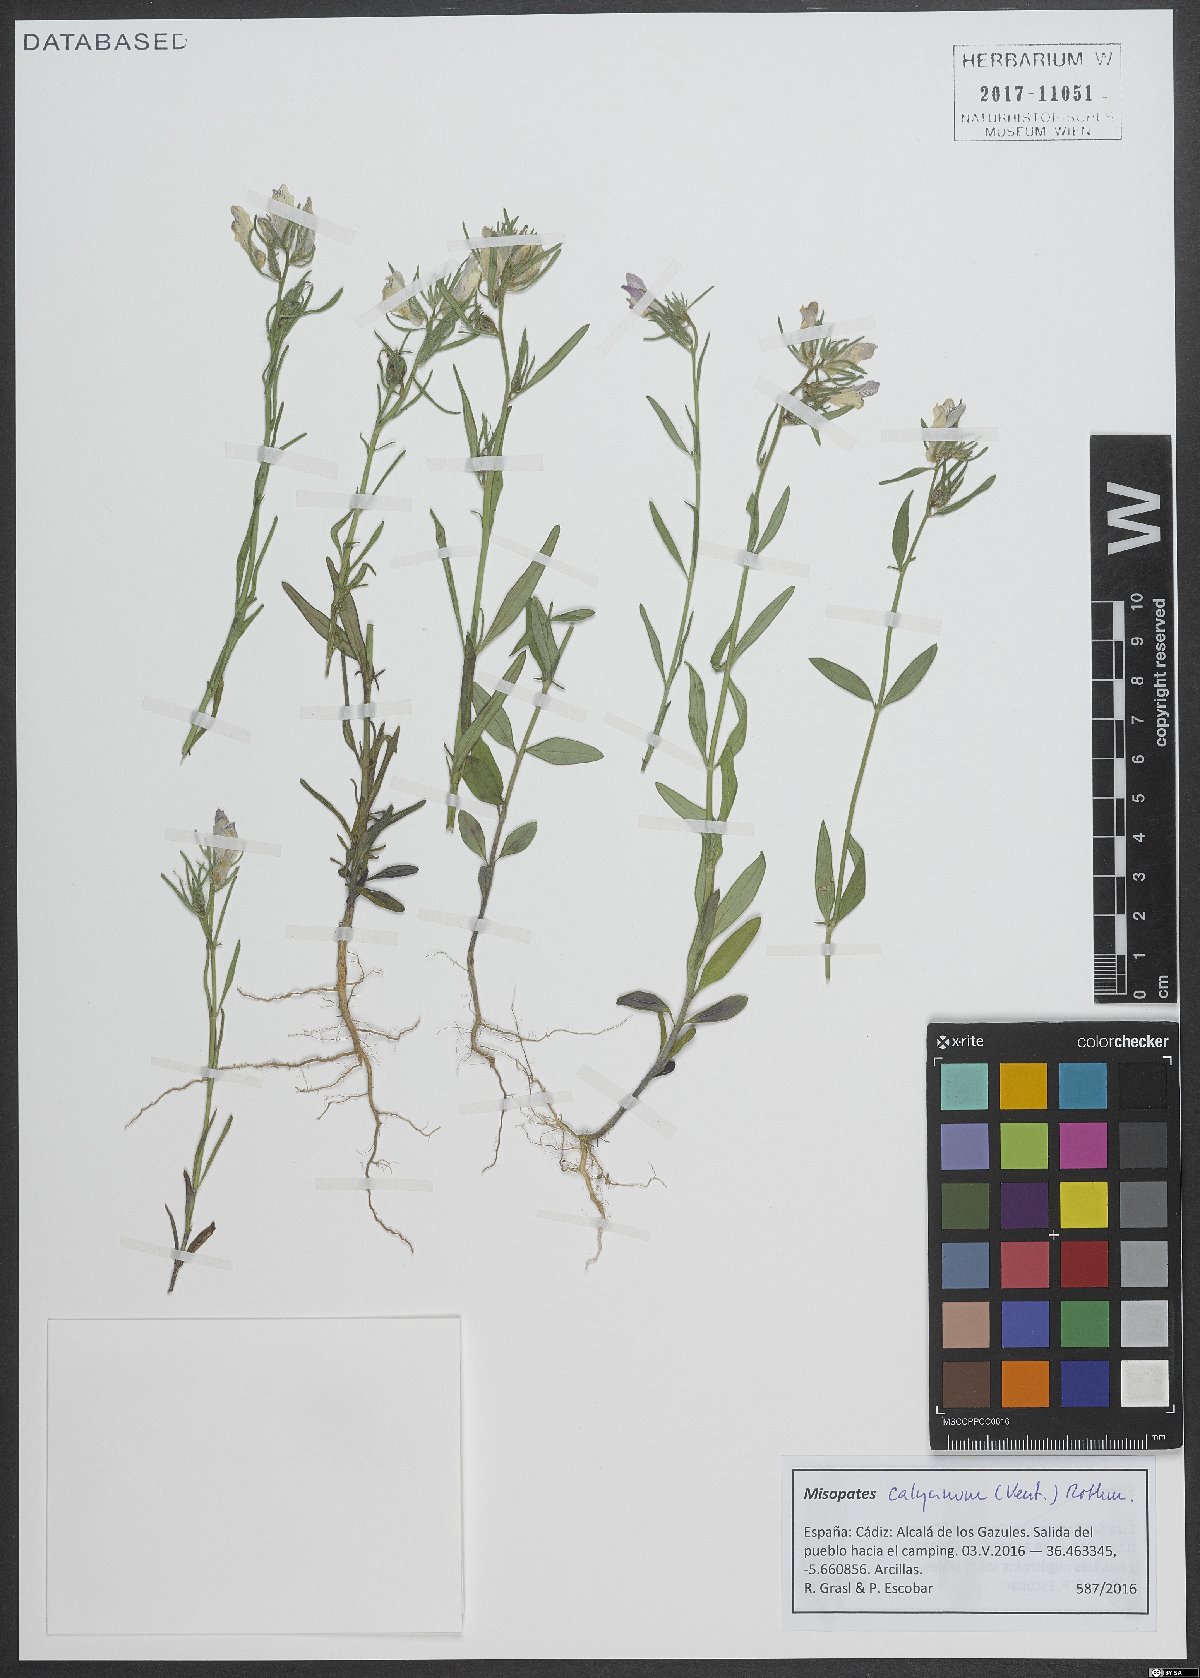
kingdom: Plantae
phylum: Tracheophyta
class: Magnoliopsida
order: Lamiales
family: Plantaginaceae
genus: Misopates
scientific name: Misopates calycinum
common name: Pale weasel's-snout
